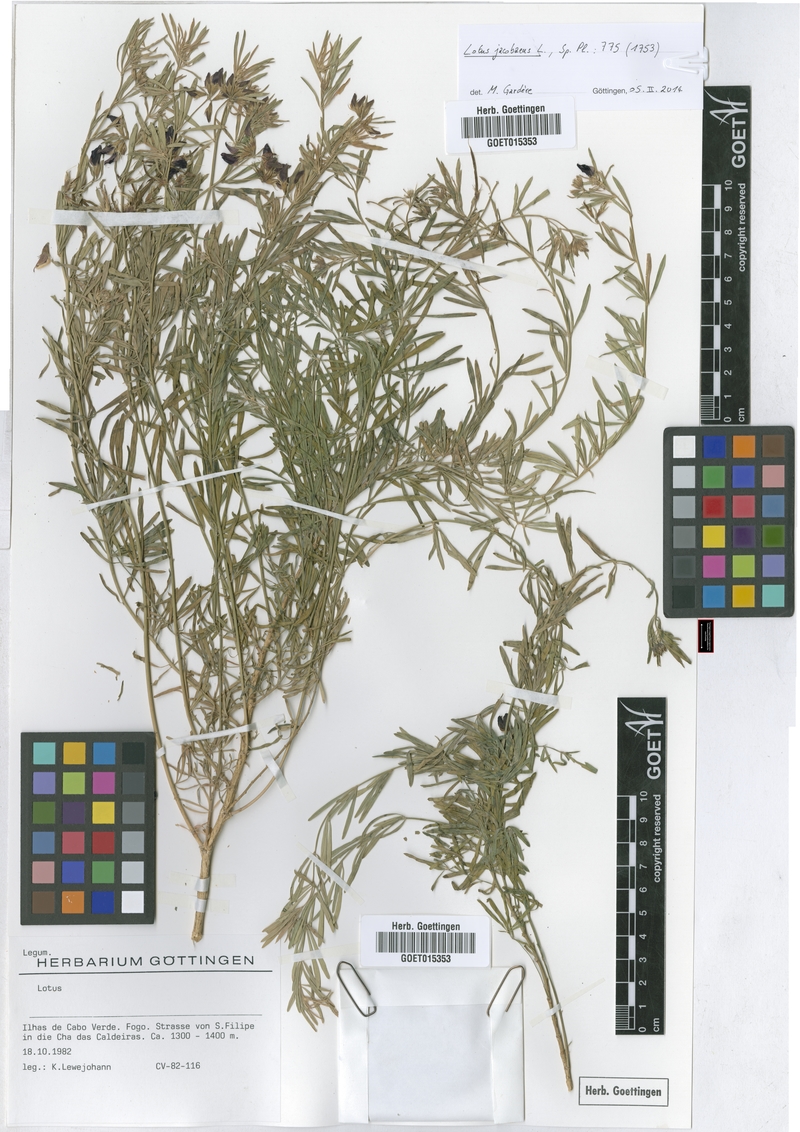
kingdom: Plantae
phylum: Tracheophyta
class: Magnoliopsida
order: Fabales
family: Fabaceae
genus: Lotus
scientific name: Lotus jacobaeus
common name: St. james's trefoil
